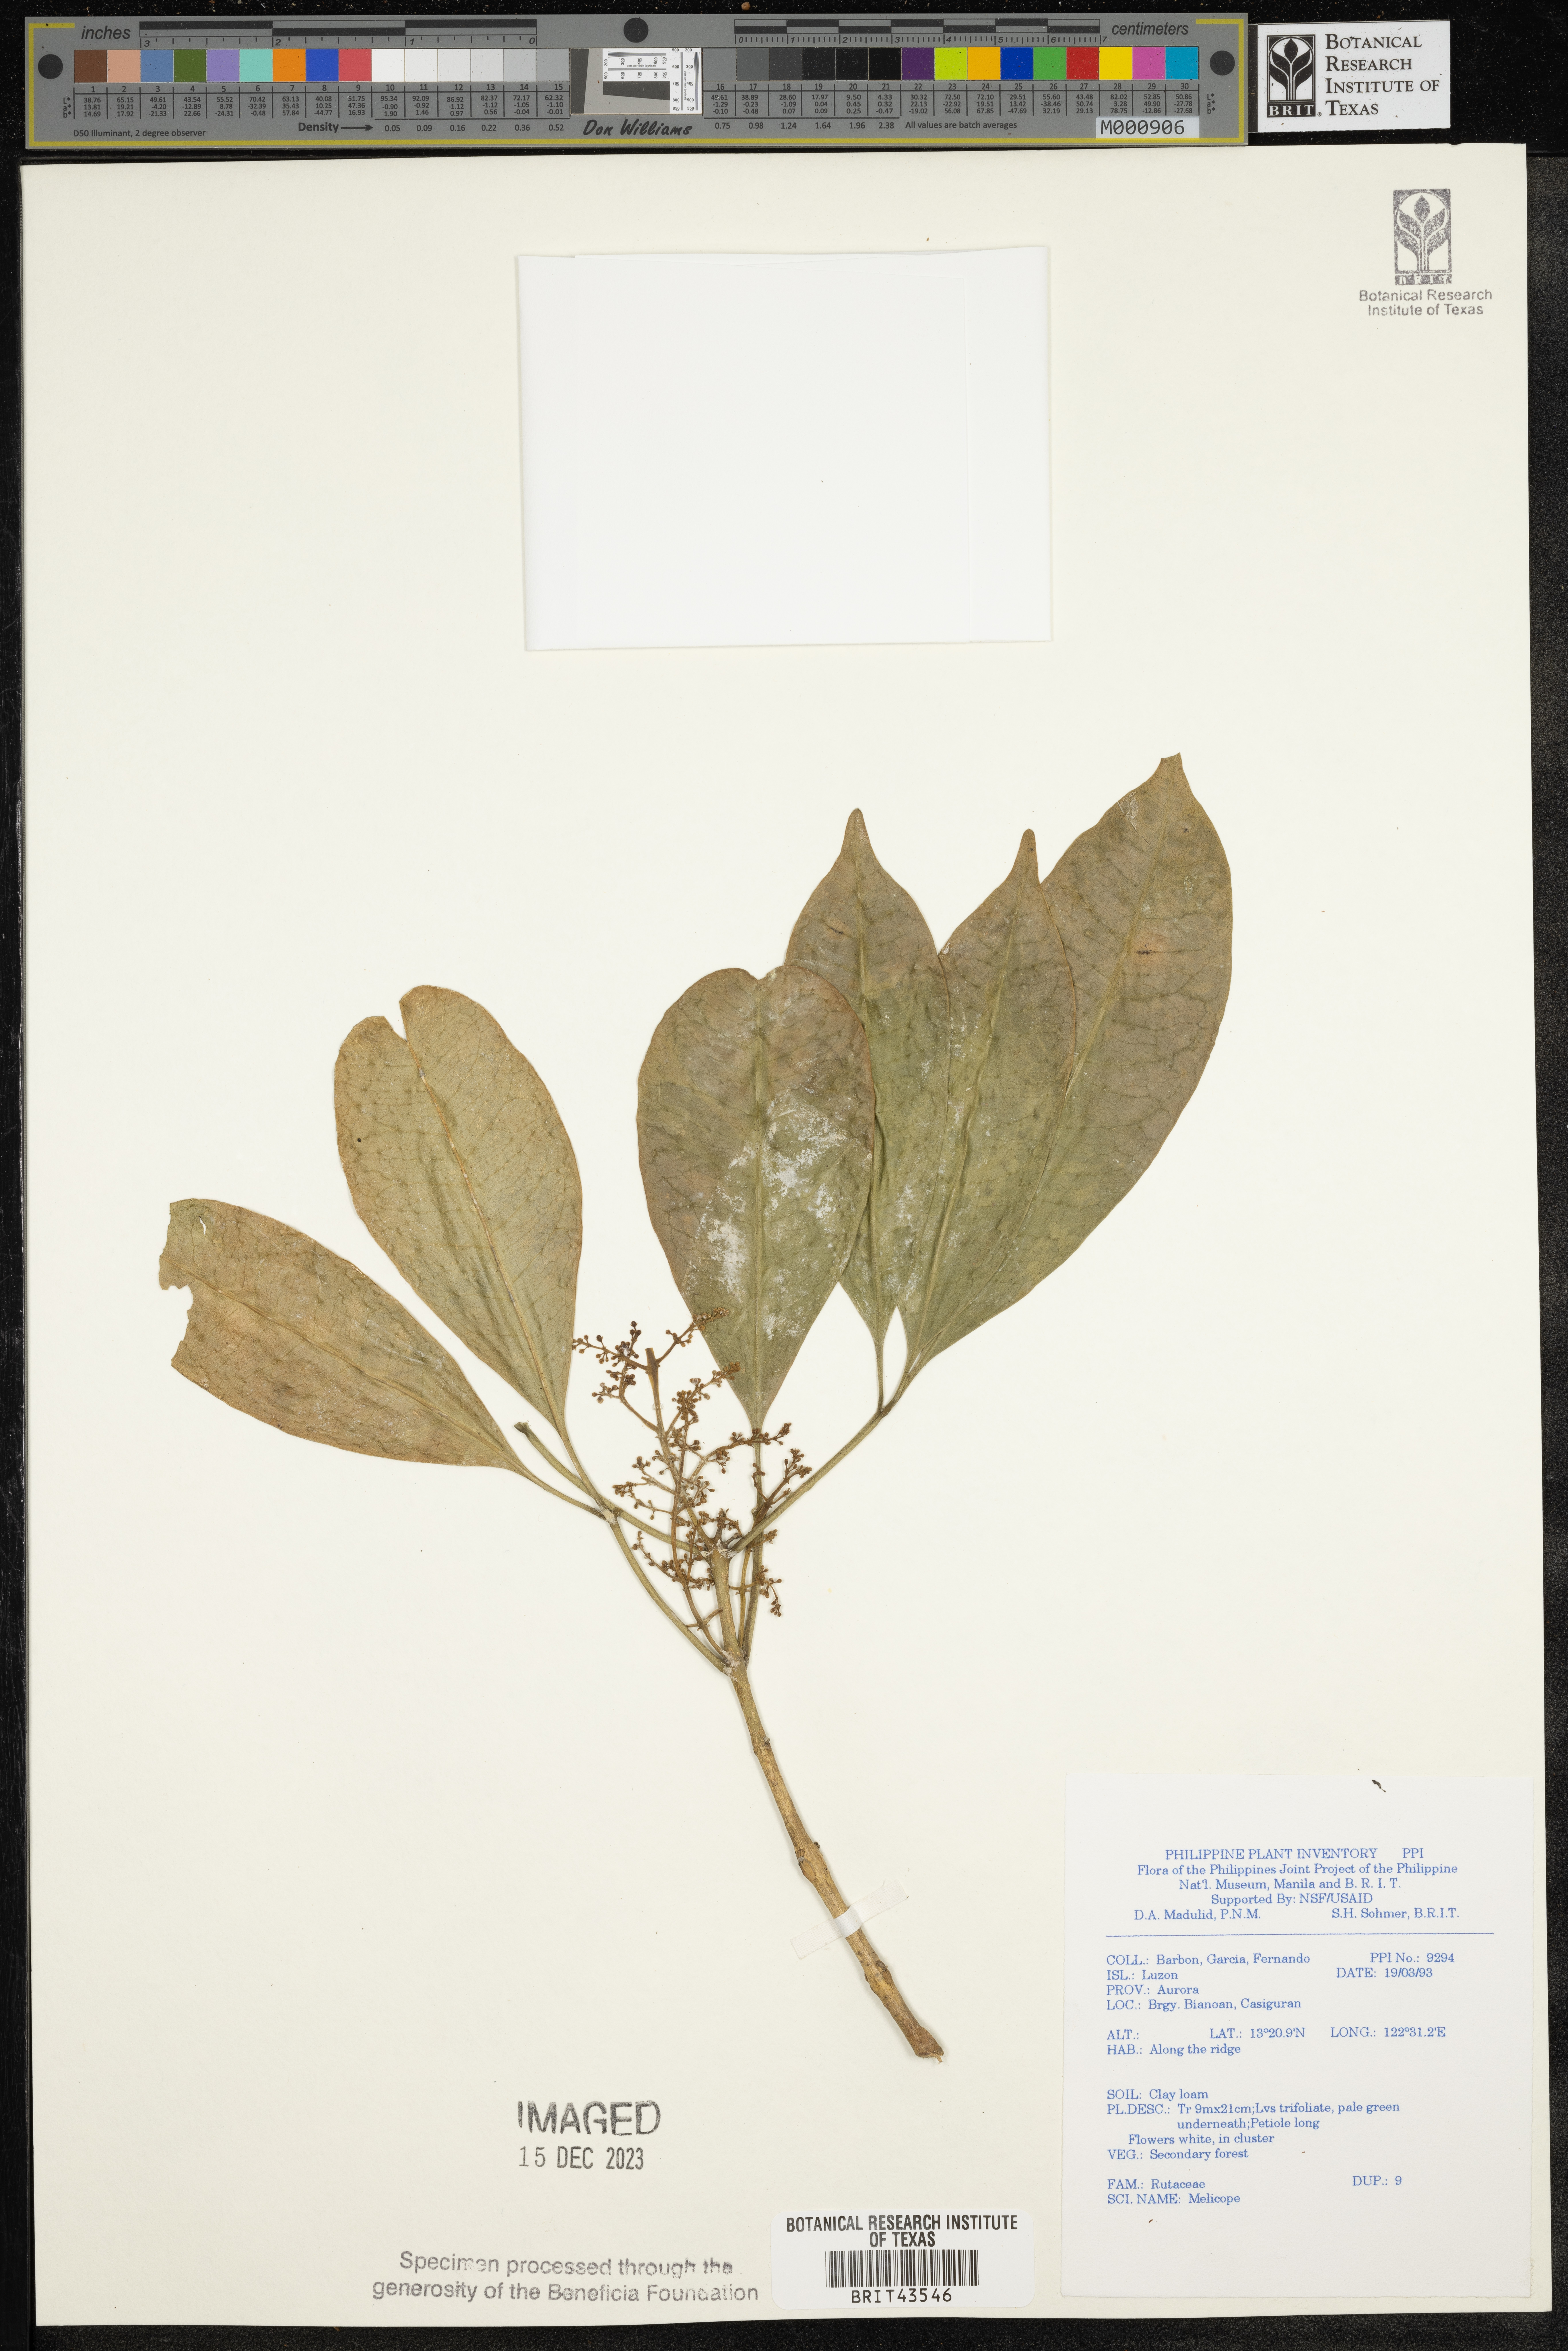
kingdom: Plantae
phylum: Tracheophyta
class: Magnoliopsida
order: Sapindales
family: Rutaceae
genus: Melicope
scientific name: Melicope
